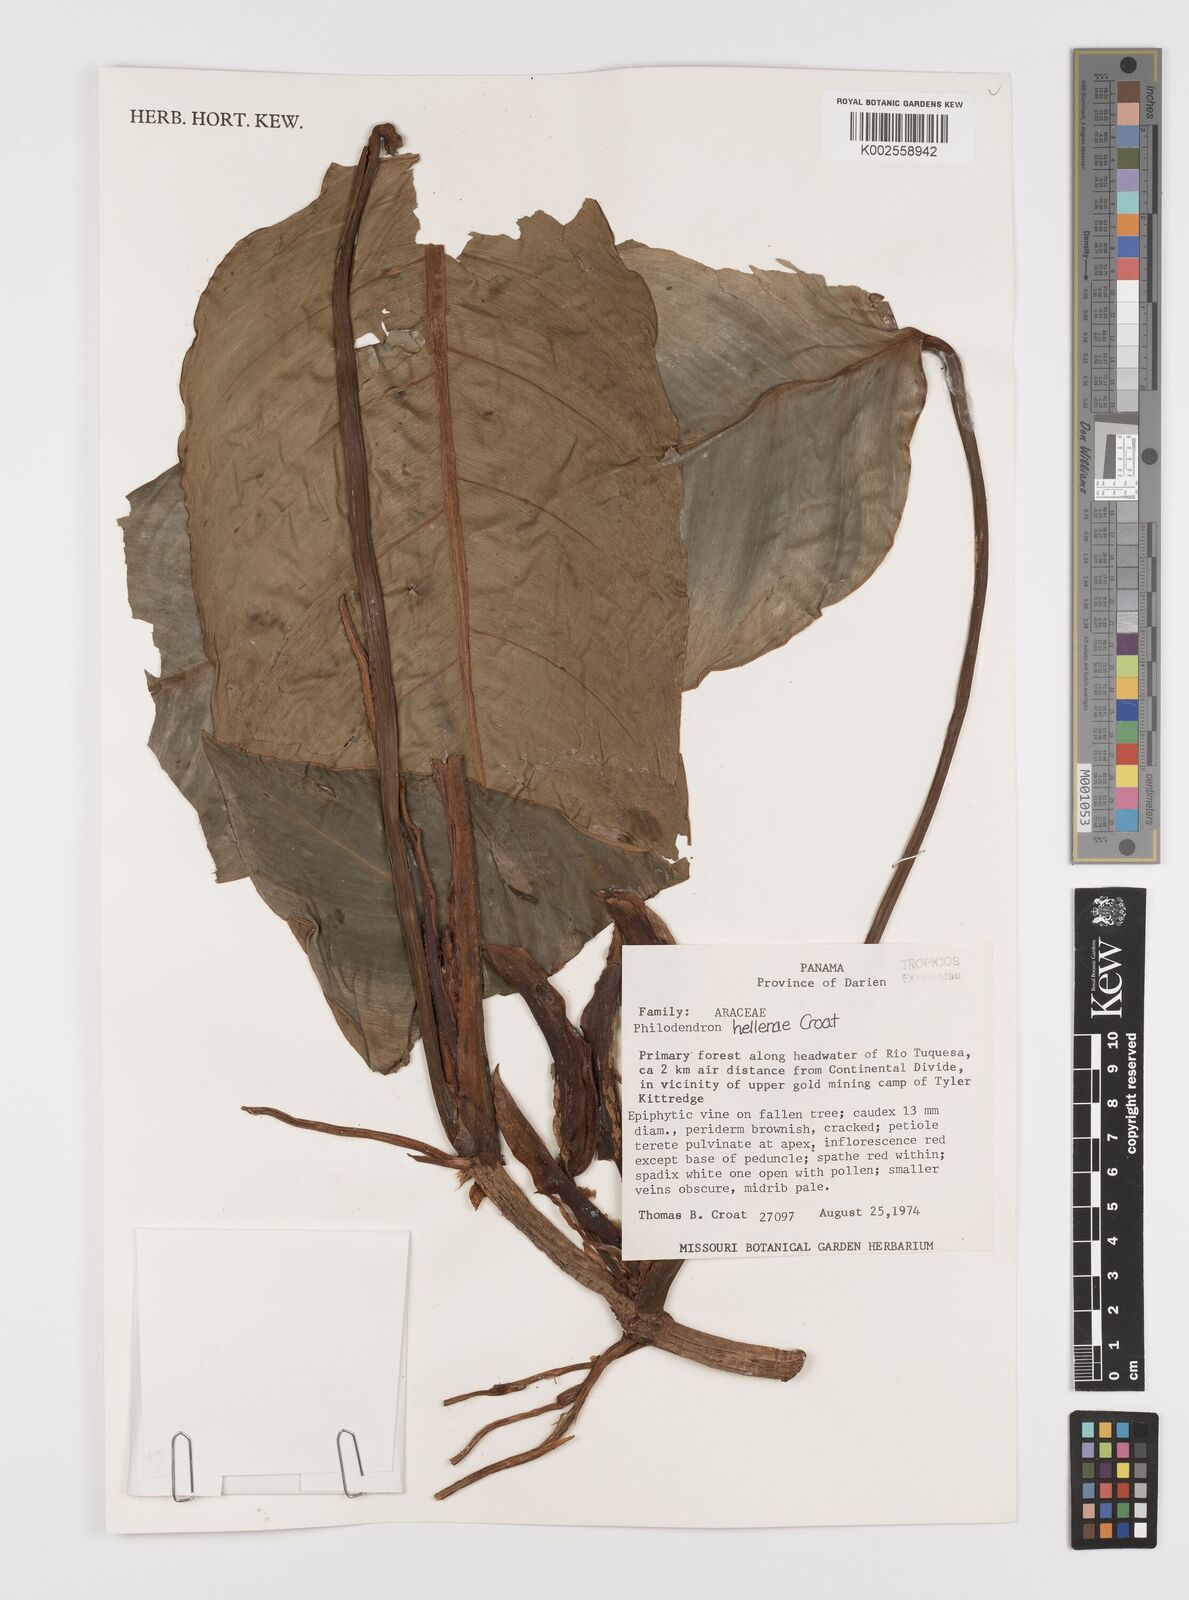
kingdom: Plantae
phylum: Tracheophyta
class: Liliopsida
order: Alismatales
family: Araceae
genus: Philodendron
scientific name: Philodendron heleniae
